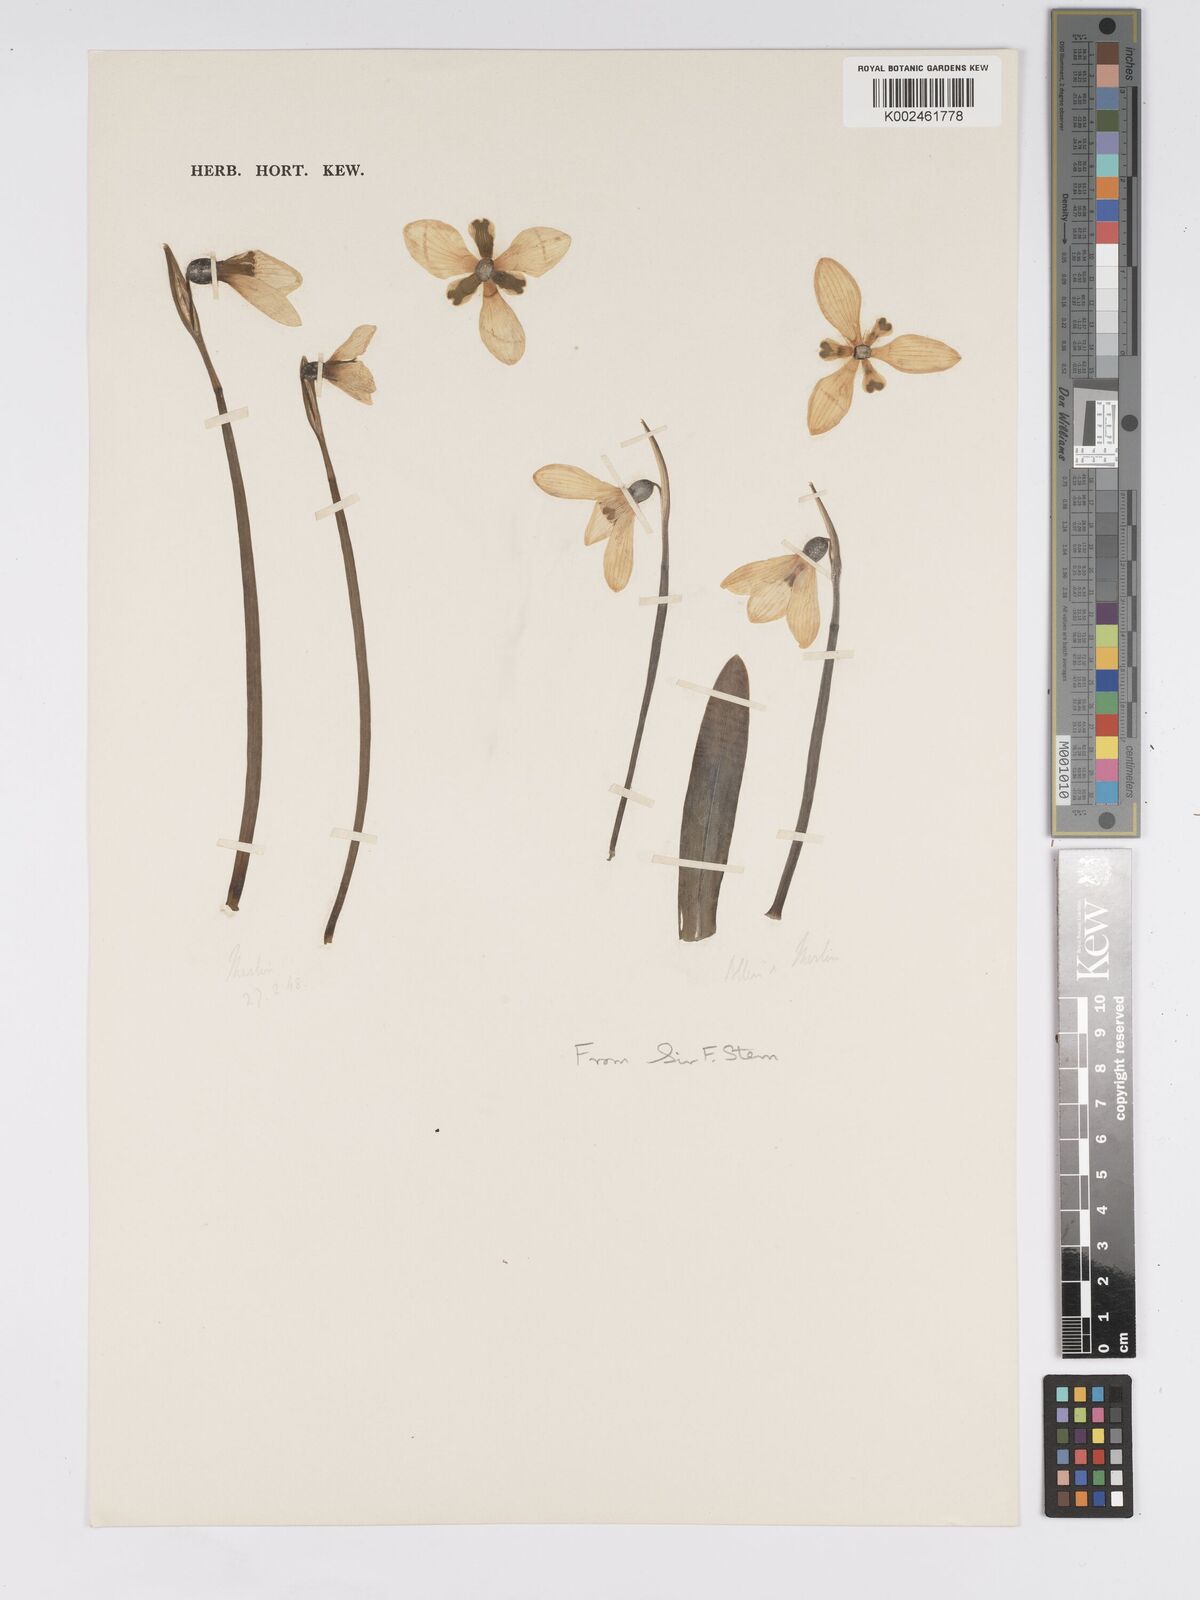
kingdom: Plantae
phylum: Tracheophyta
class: Liliopsida
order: Asparagales
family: Amaryllidaceae
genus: Galanthus
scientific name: Galanthus
